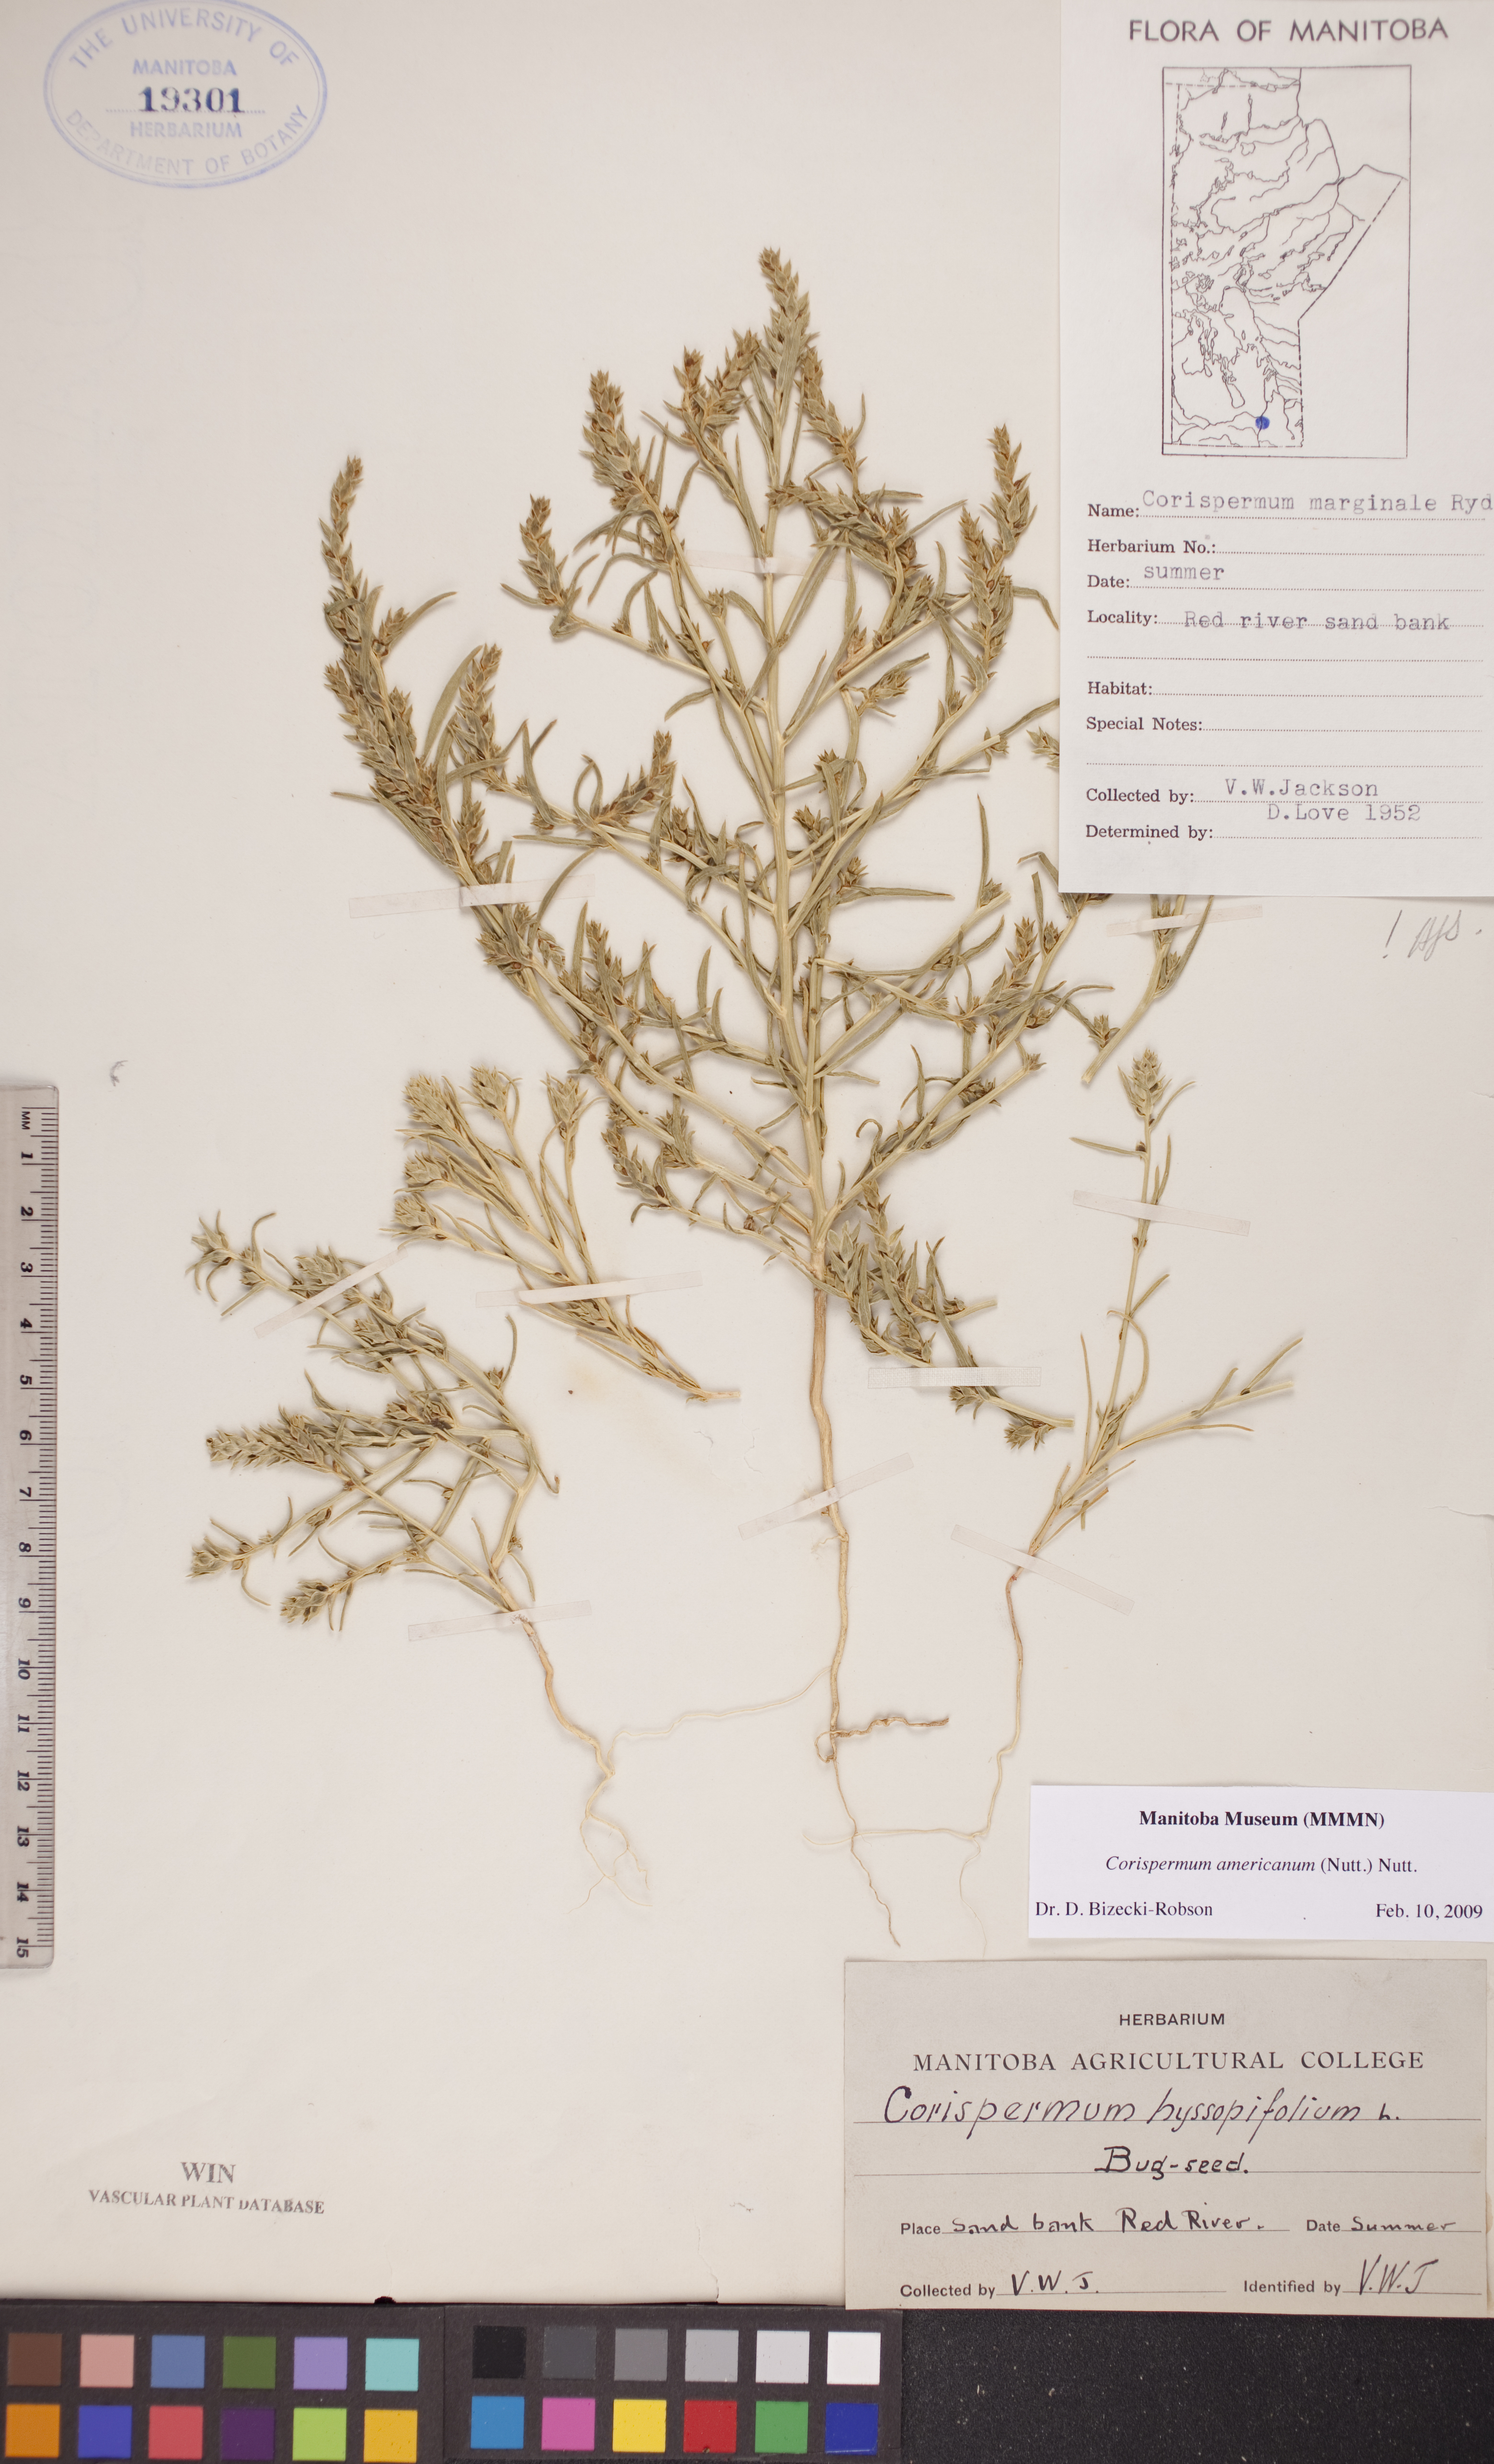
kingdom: Plantae
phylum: Tracheophyta
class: Magnoliopsida
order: Caryophyllales
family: Amaranthaceae
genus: Corispermum
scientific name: Corispermum americanum
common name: American bugseed
